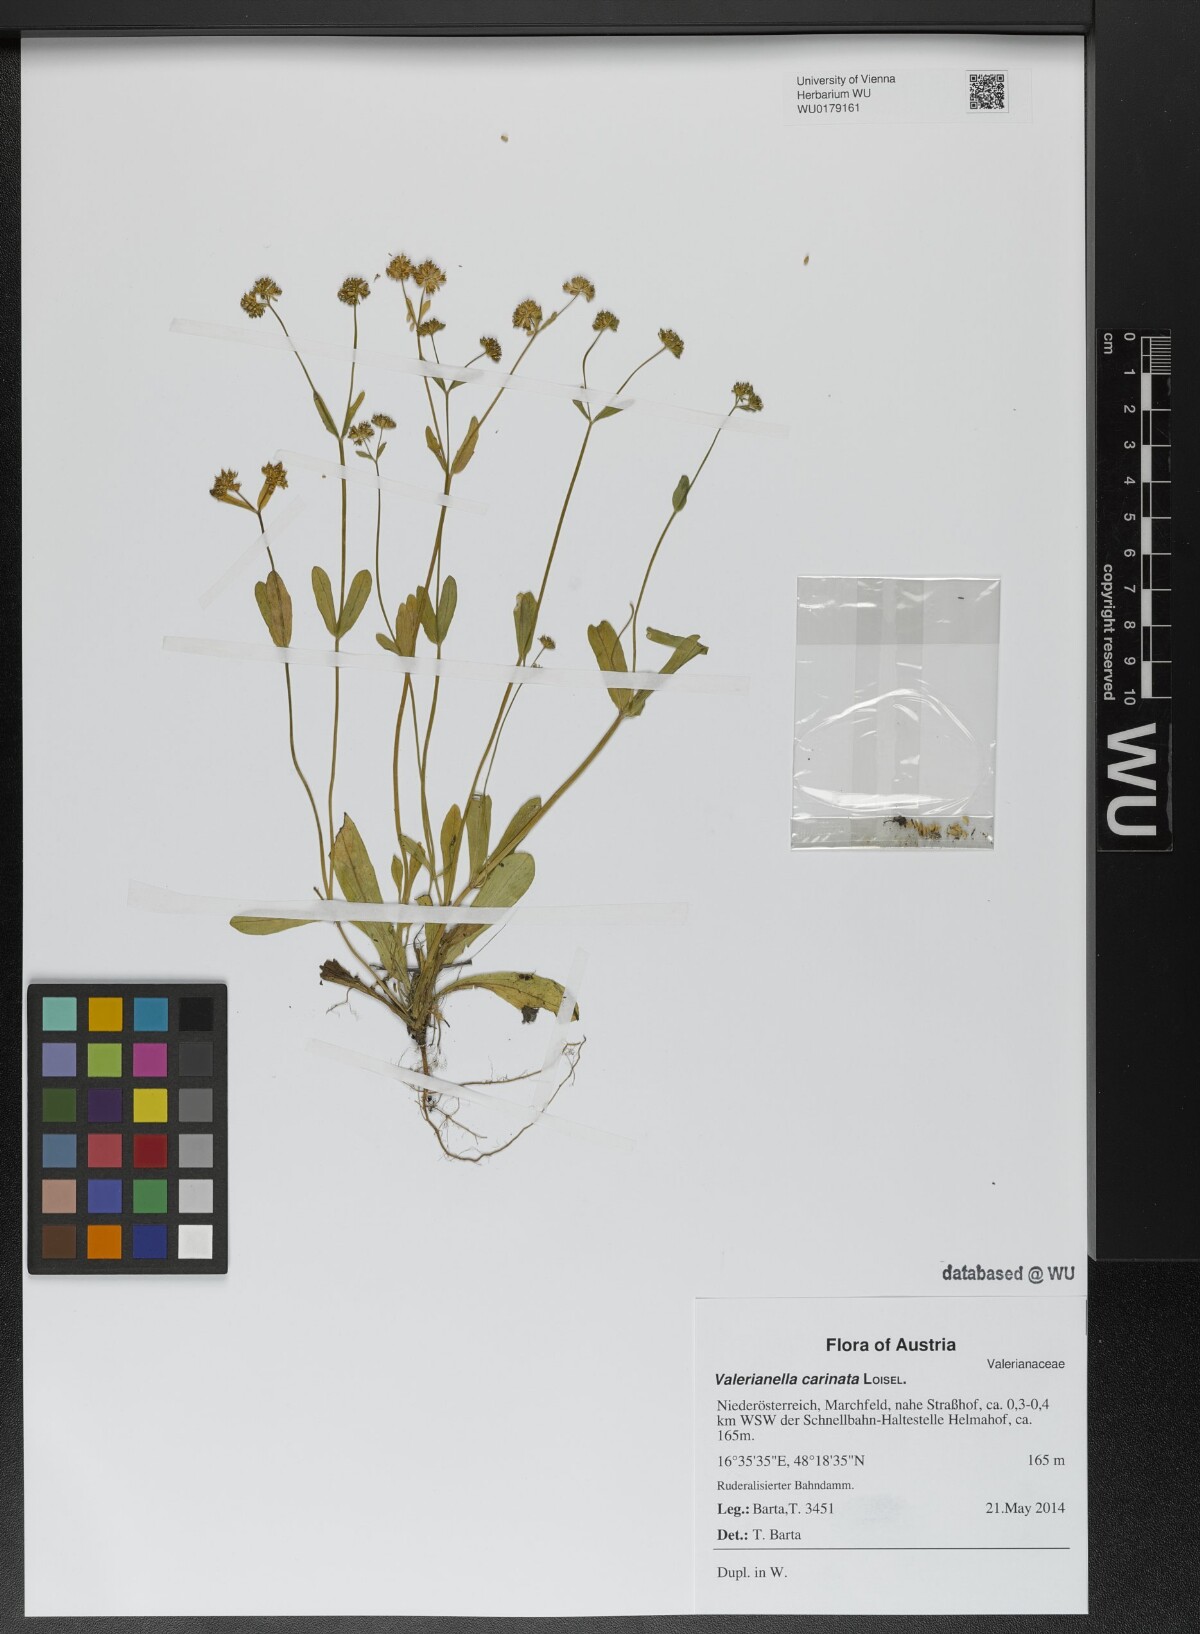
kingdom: Plantae
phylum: Tracheophyta
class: Magnoliopsida
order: Dipsacales
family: Caprifoliaceae
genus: Valerianella
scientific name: Valerianella carinata
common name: Keeled-fruited cornsalad
